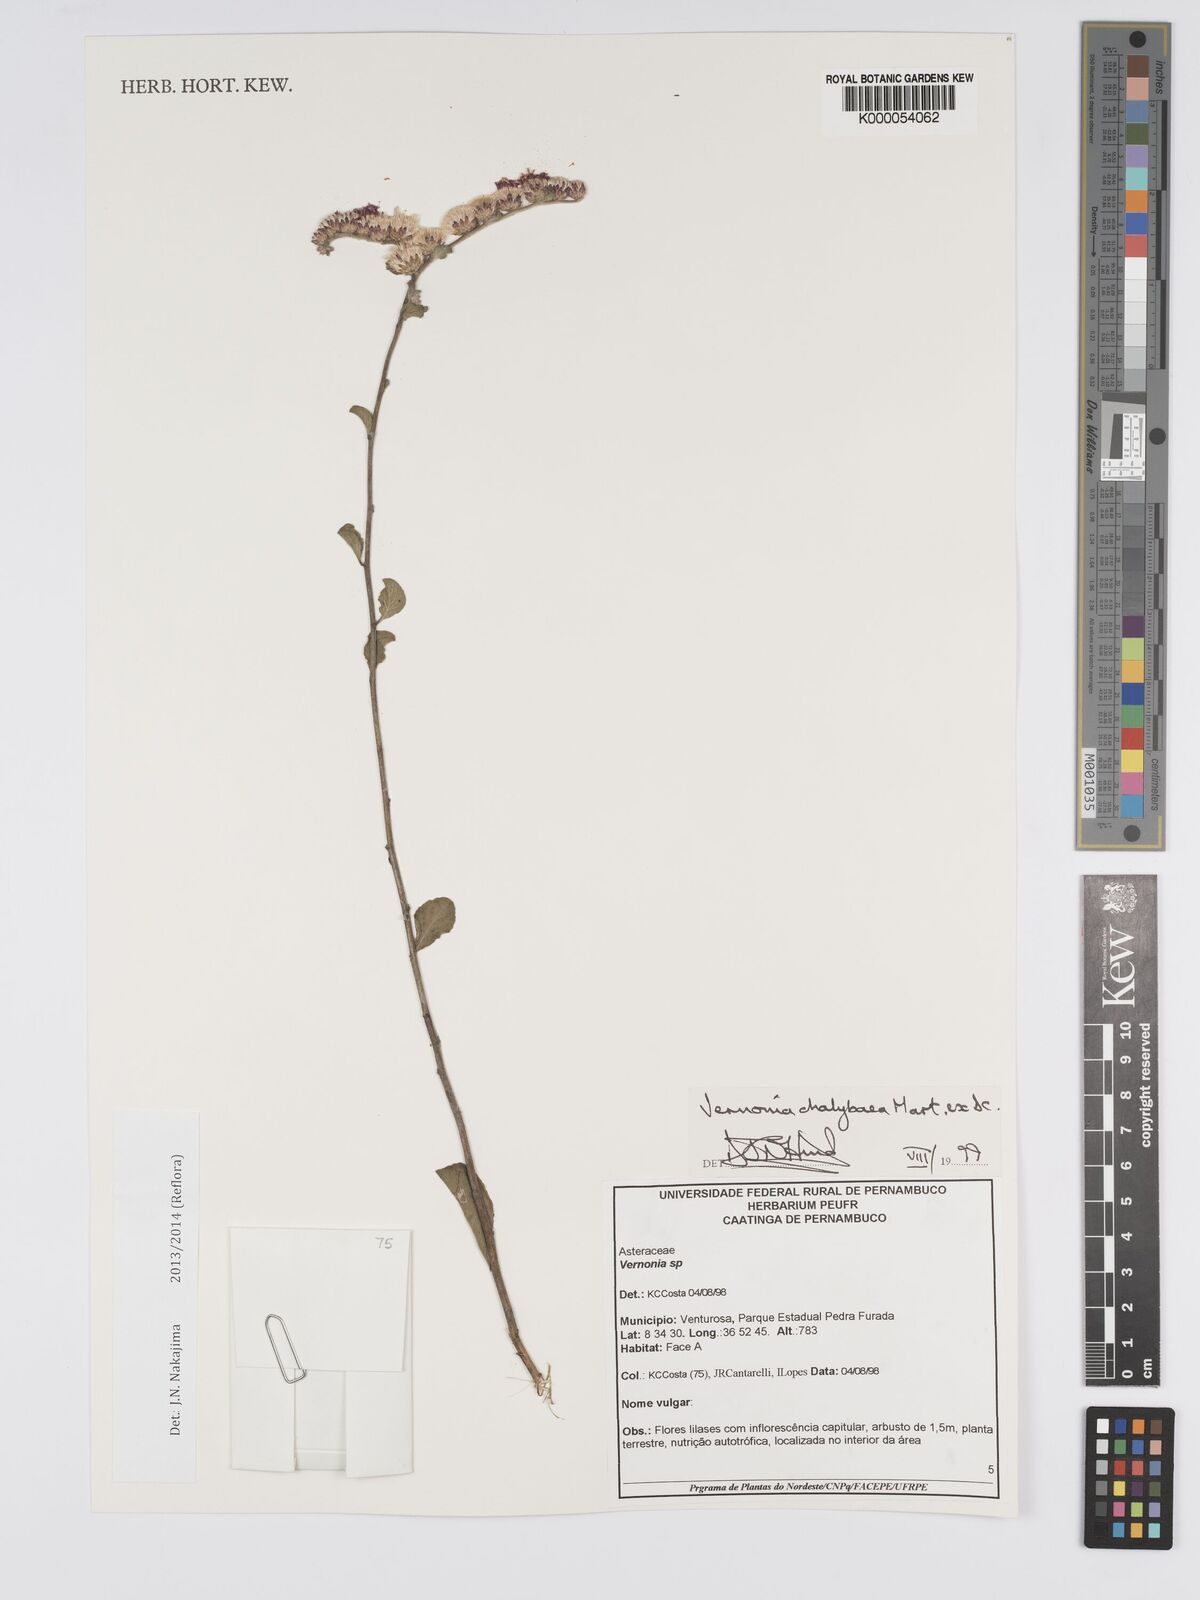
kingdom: Plantae
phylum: Tracheophyta
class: Magnoliopsida
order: Asterales
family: Asteraceae
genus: Lepidaploa
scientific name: Lepidaploa chalybaea
